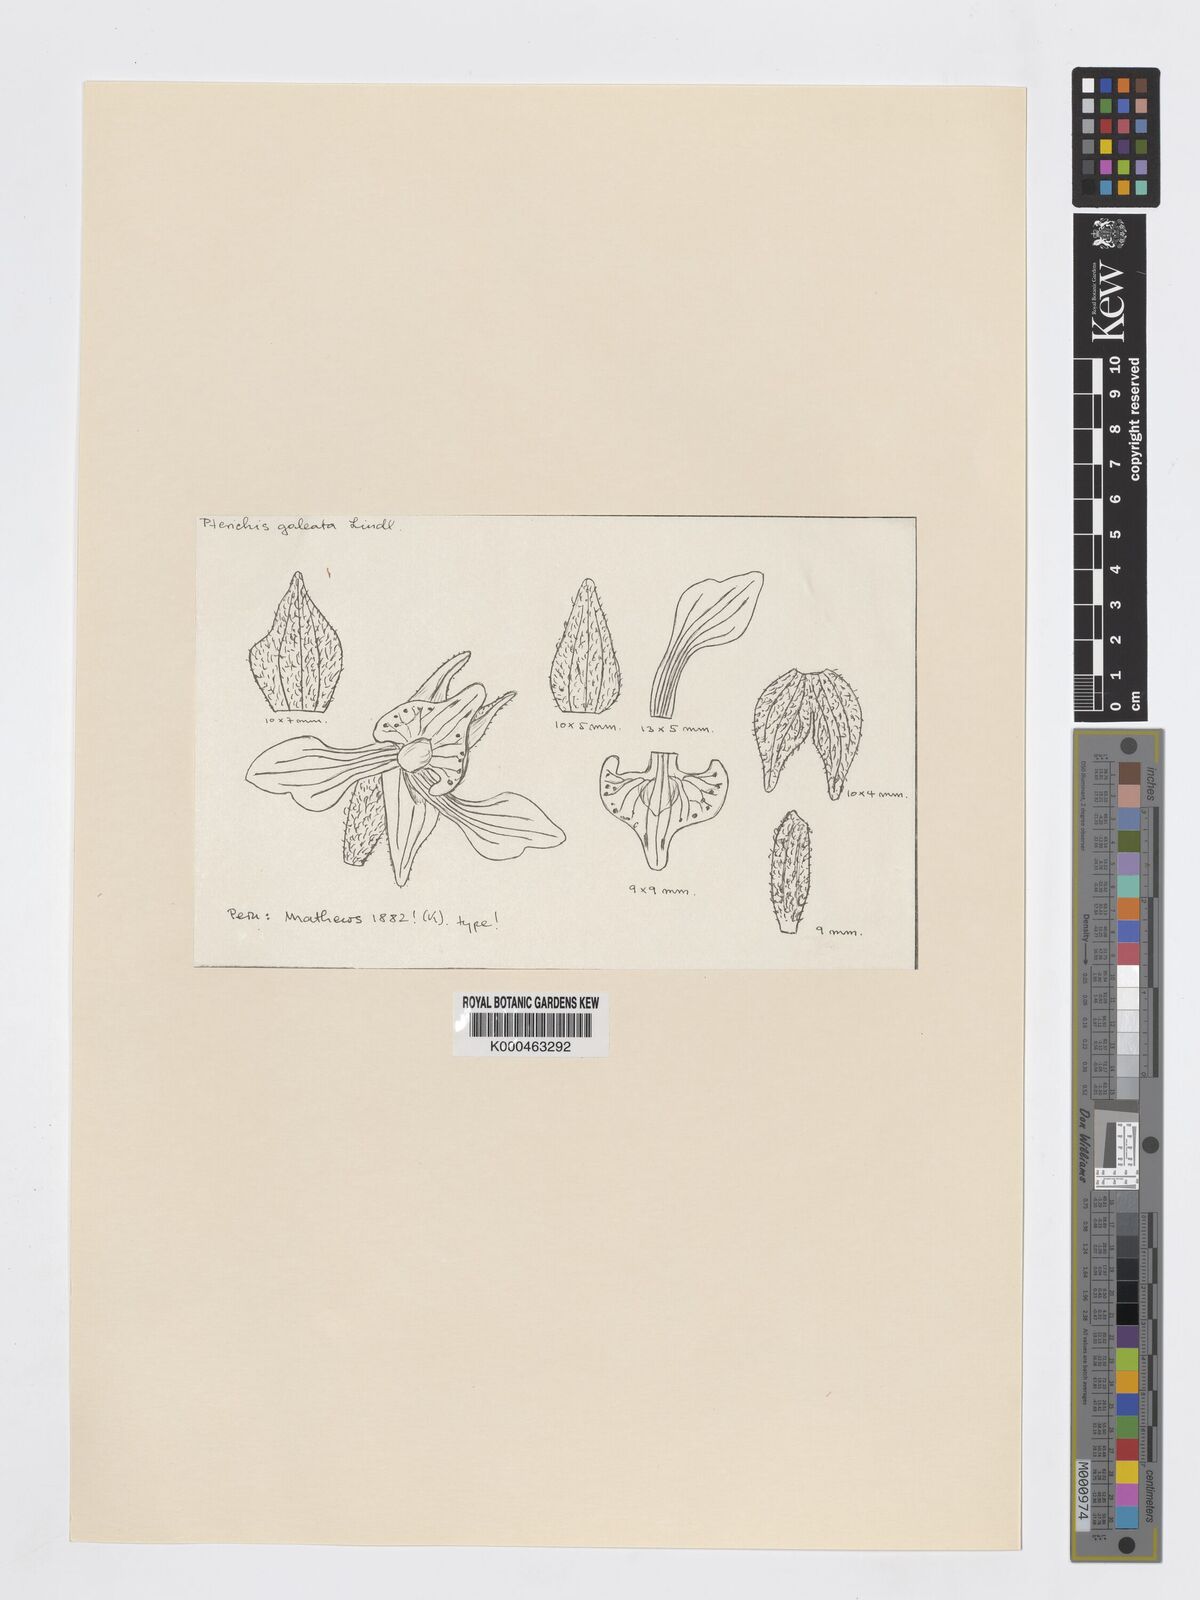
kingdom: Plantae
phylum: Tracheophyta
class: Liliopsida
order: Asparagales
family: Orchidaceae
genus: Pterichis
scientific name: Pterichis galeata
